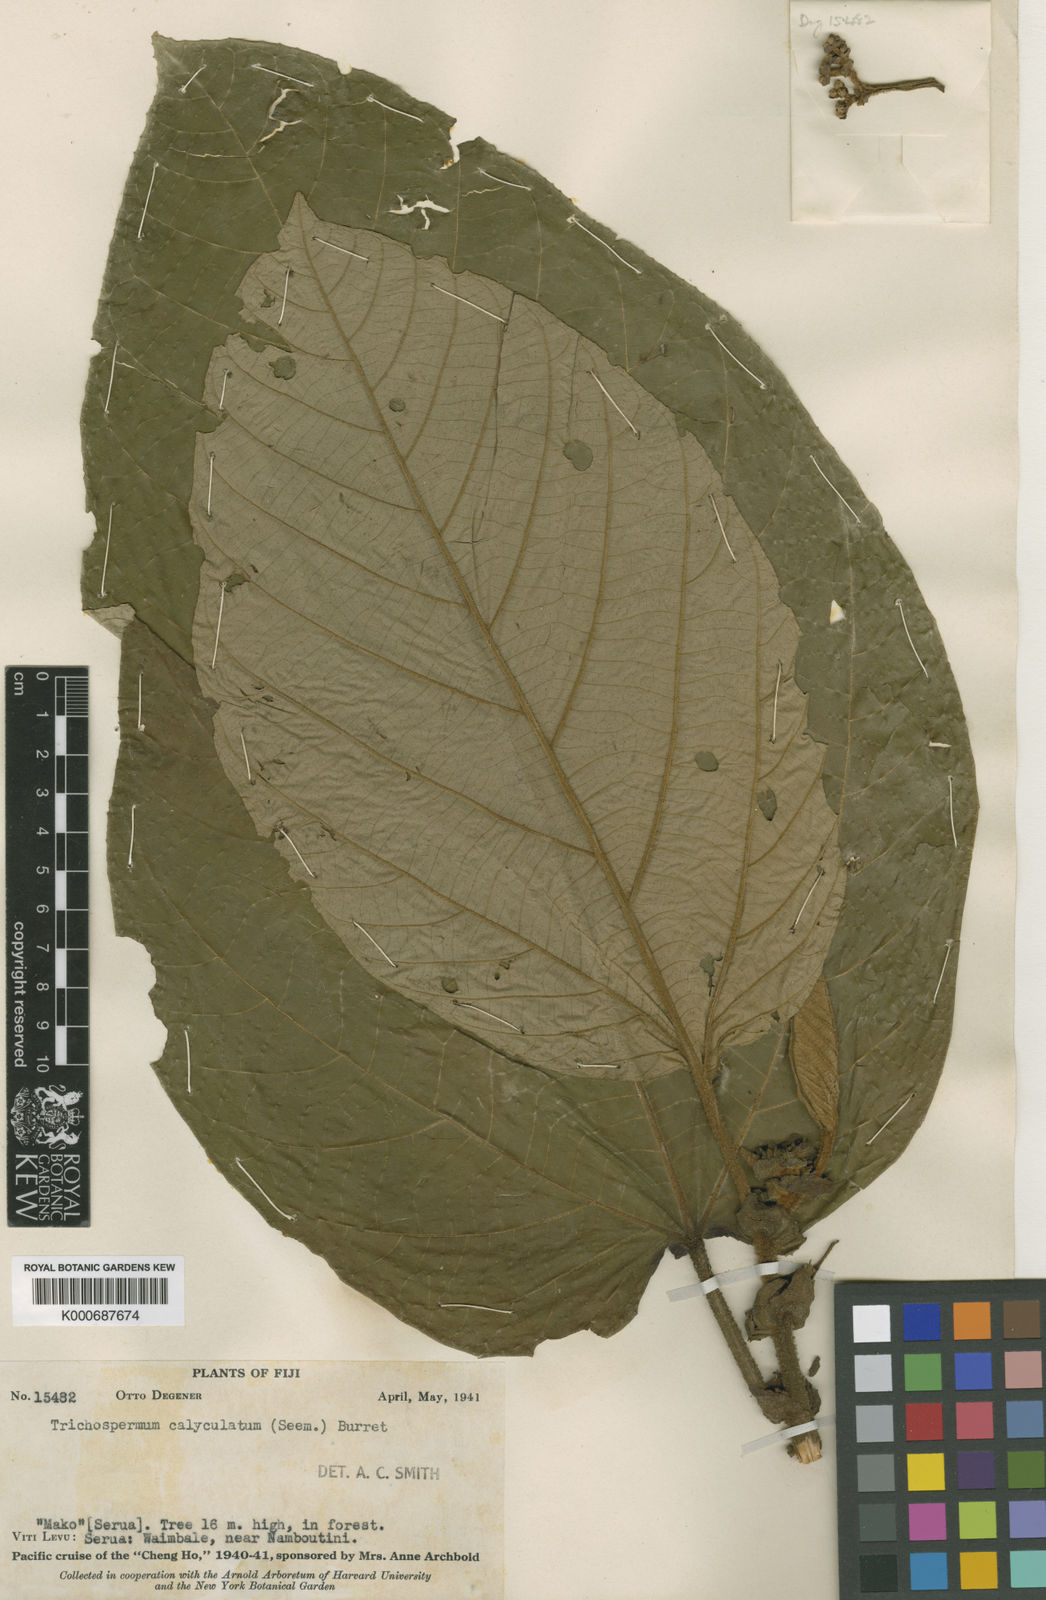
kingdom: Plantae
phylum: Tracheophyta
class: Magnoliopsida
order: Malvales
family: Malvaceae
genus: Trichospermum
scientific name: Trichospermum calyculatum
